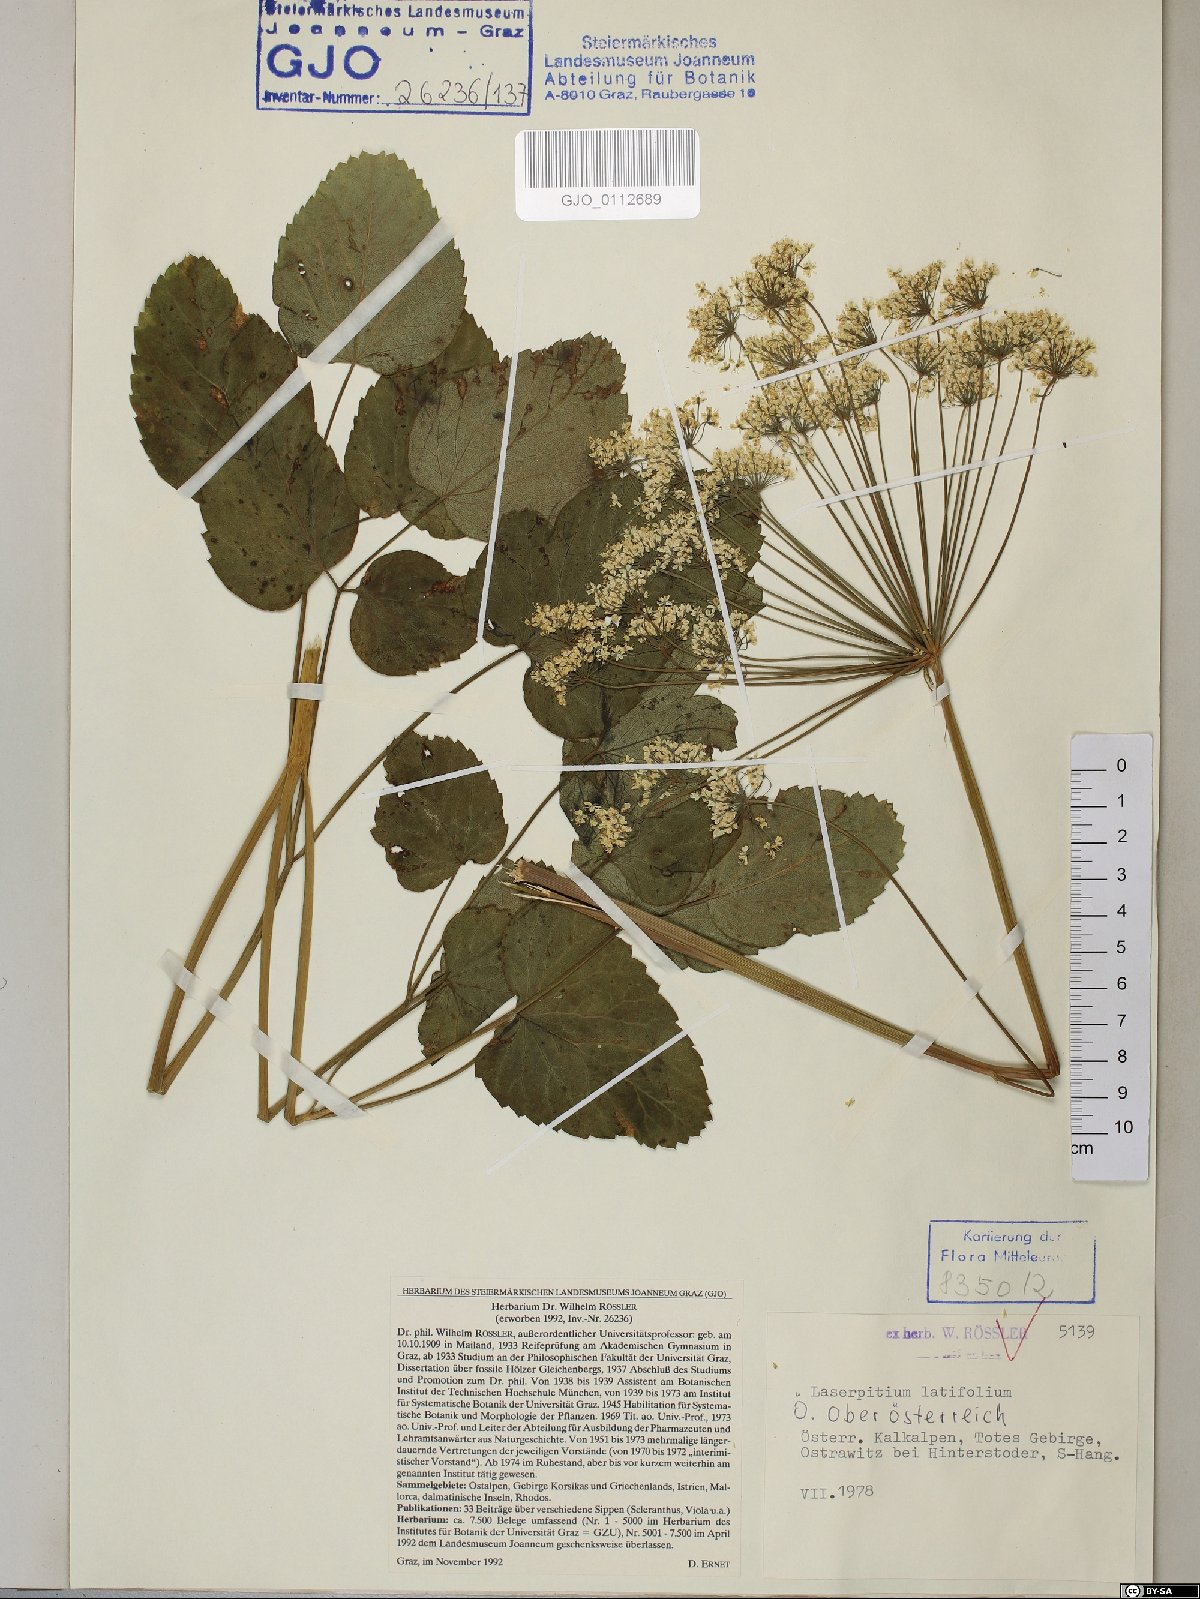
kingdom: Plantae
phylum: Tracheophyta
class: Magnoliopsida
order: Apiales
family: Apiaceae
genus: Laserpitium
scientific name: Laserpitium latifolium
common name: Broadleaf sermountain
